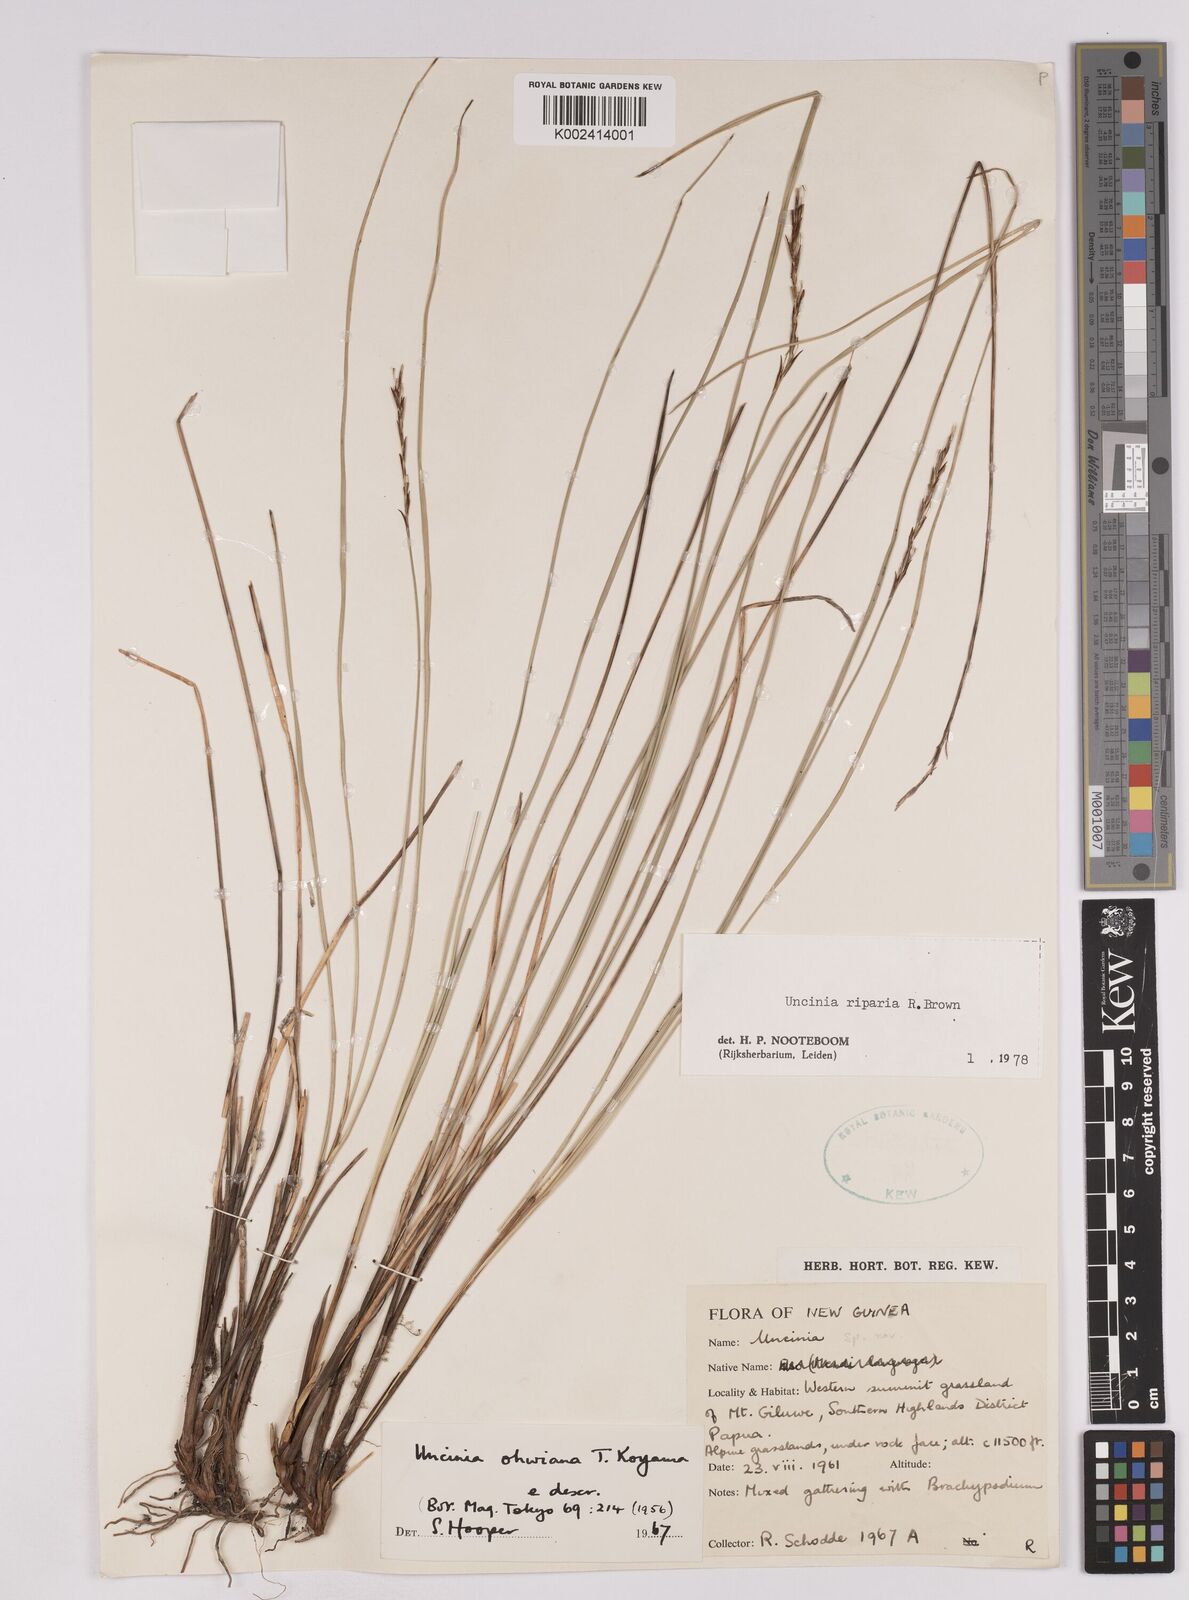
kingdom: Plantae
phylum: Tracheophyta
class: Liliopsida
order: Poales
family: Cyperaceae
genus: Carex
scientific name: Carex sclerophylla
